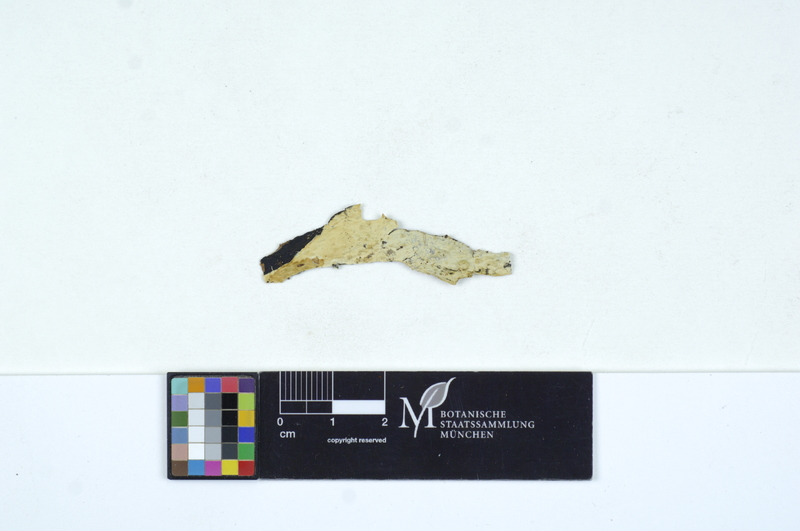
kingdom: Fungi
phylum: Basidiomycota
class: Agaricomycetes
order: Sebacinales
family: Sebacinaceae
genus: Helvellosebacina
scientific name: Helvellosebacina helvelloides
